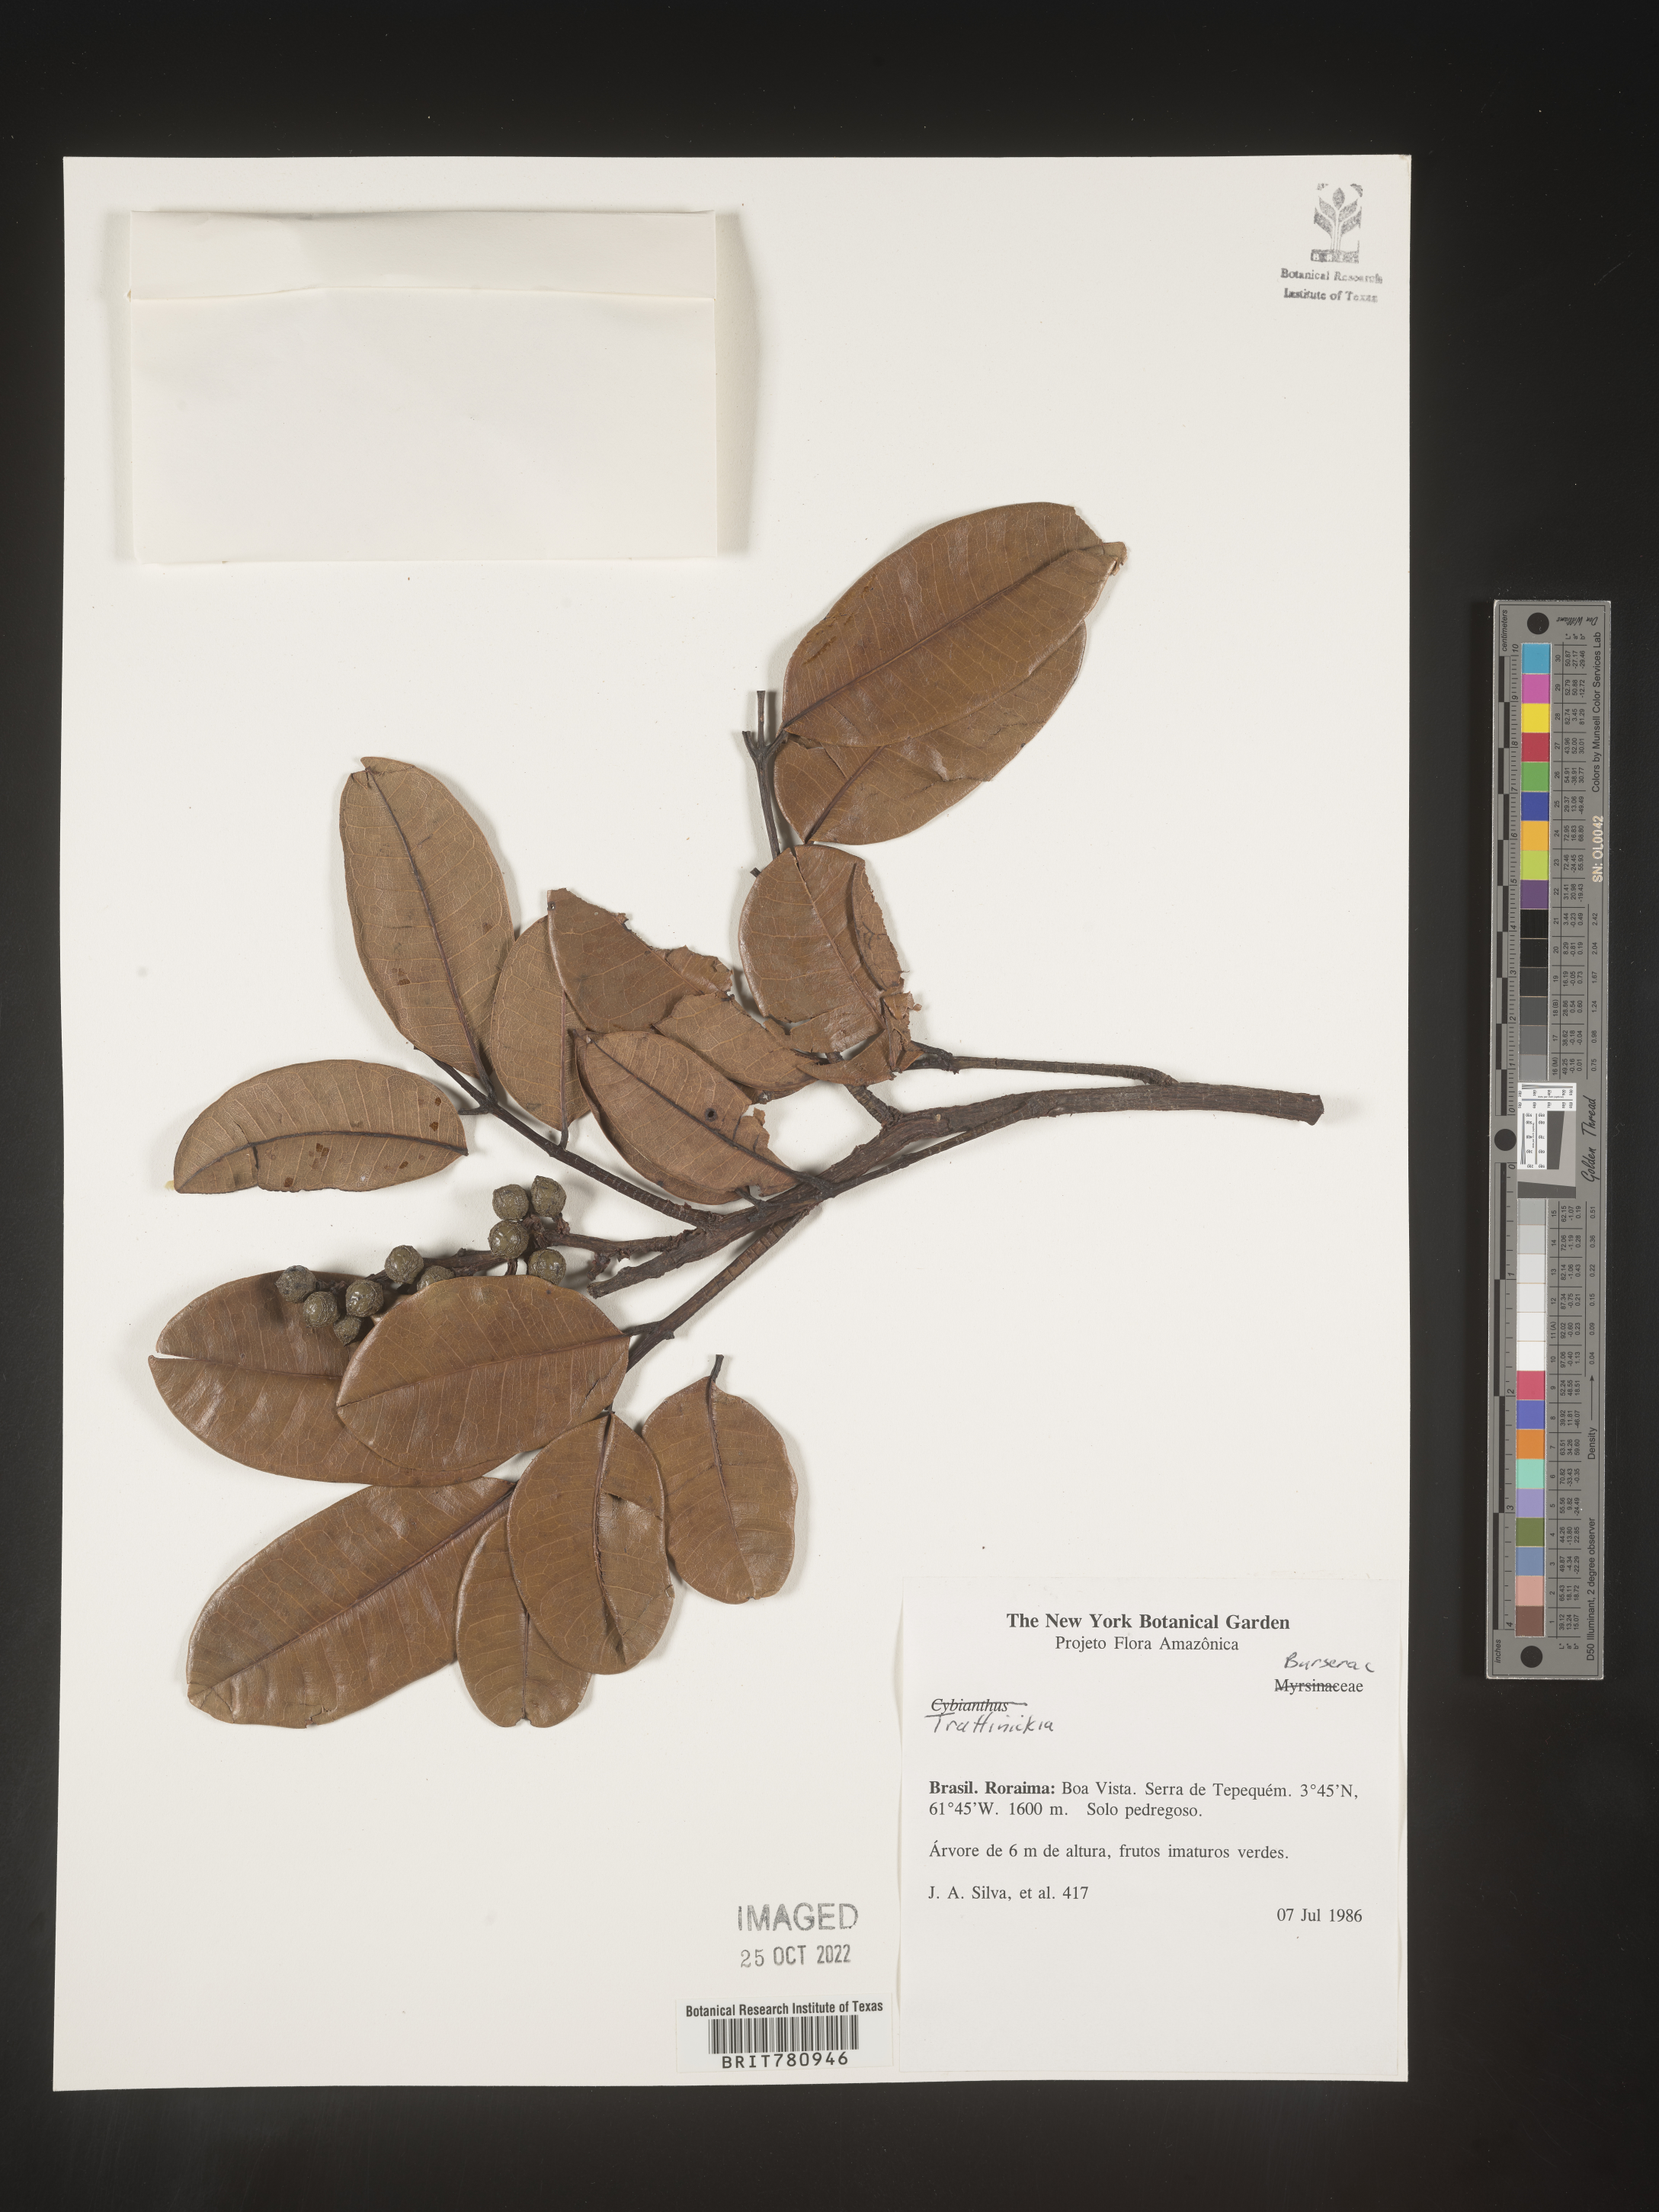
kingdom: Plantae
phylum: Tracheophyta
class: Magnoliopsida
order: Sapindales
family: Burseraceae
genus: Trattinnickia
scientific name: Trattinnickia
